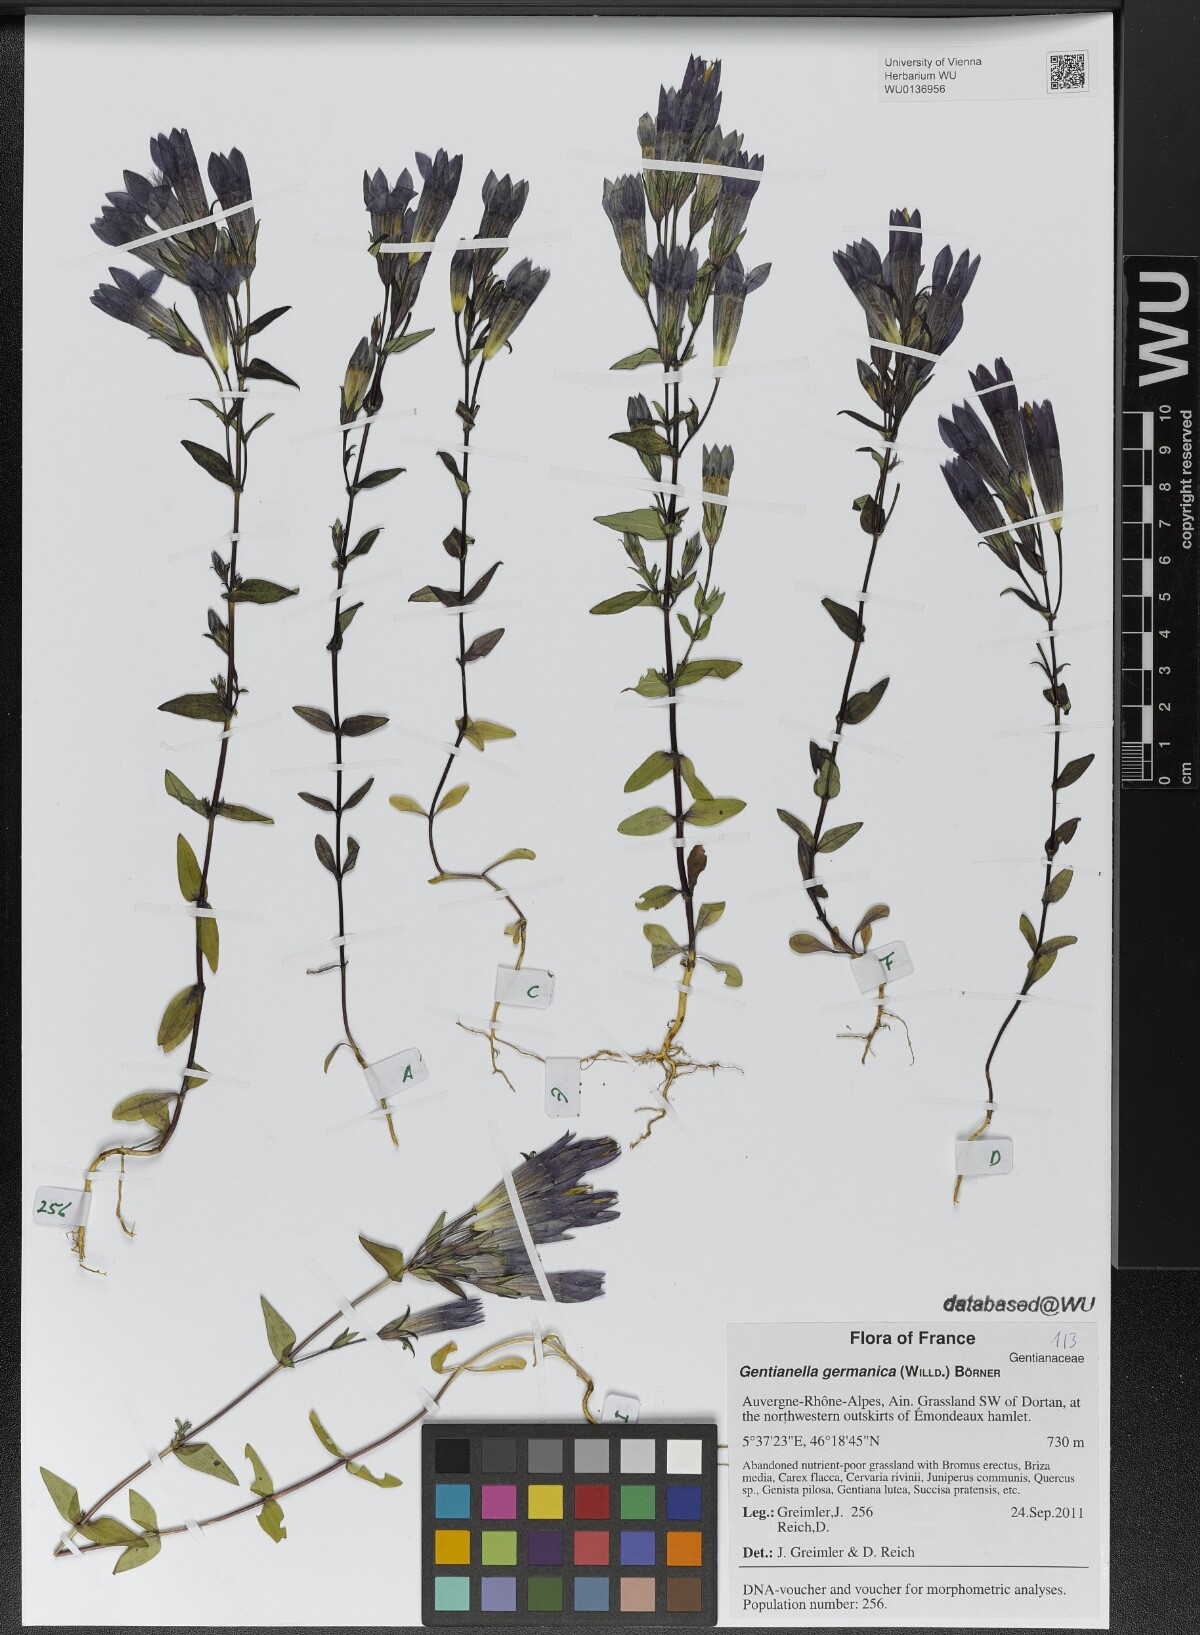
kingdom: Plantae
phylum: Tracheophyta
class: Magnoliopsida
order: Gentianales
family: Gentianaceae
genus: Gentianella
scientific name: Gentianella germanica
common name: Chiltern-gentian
